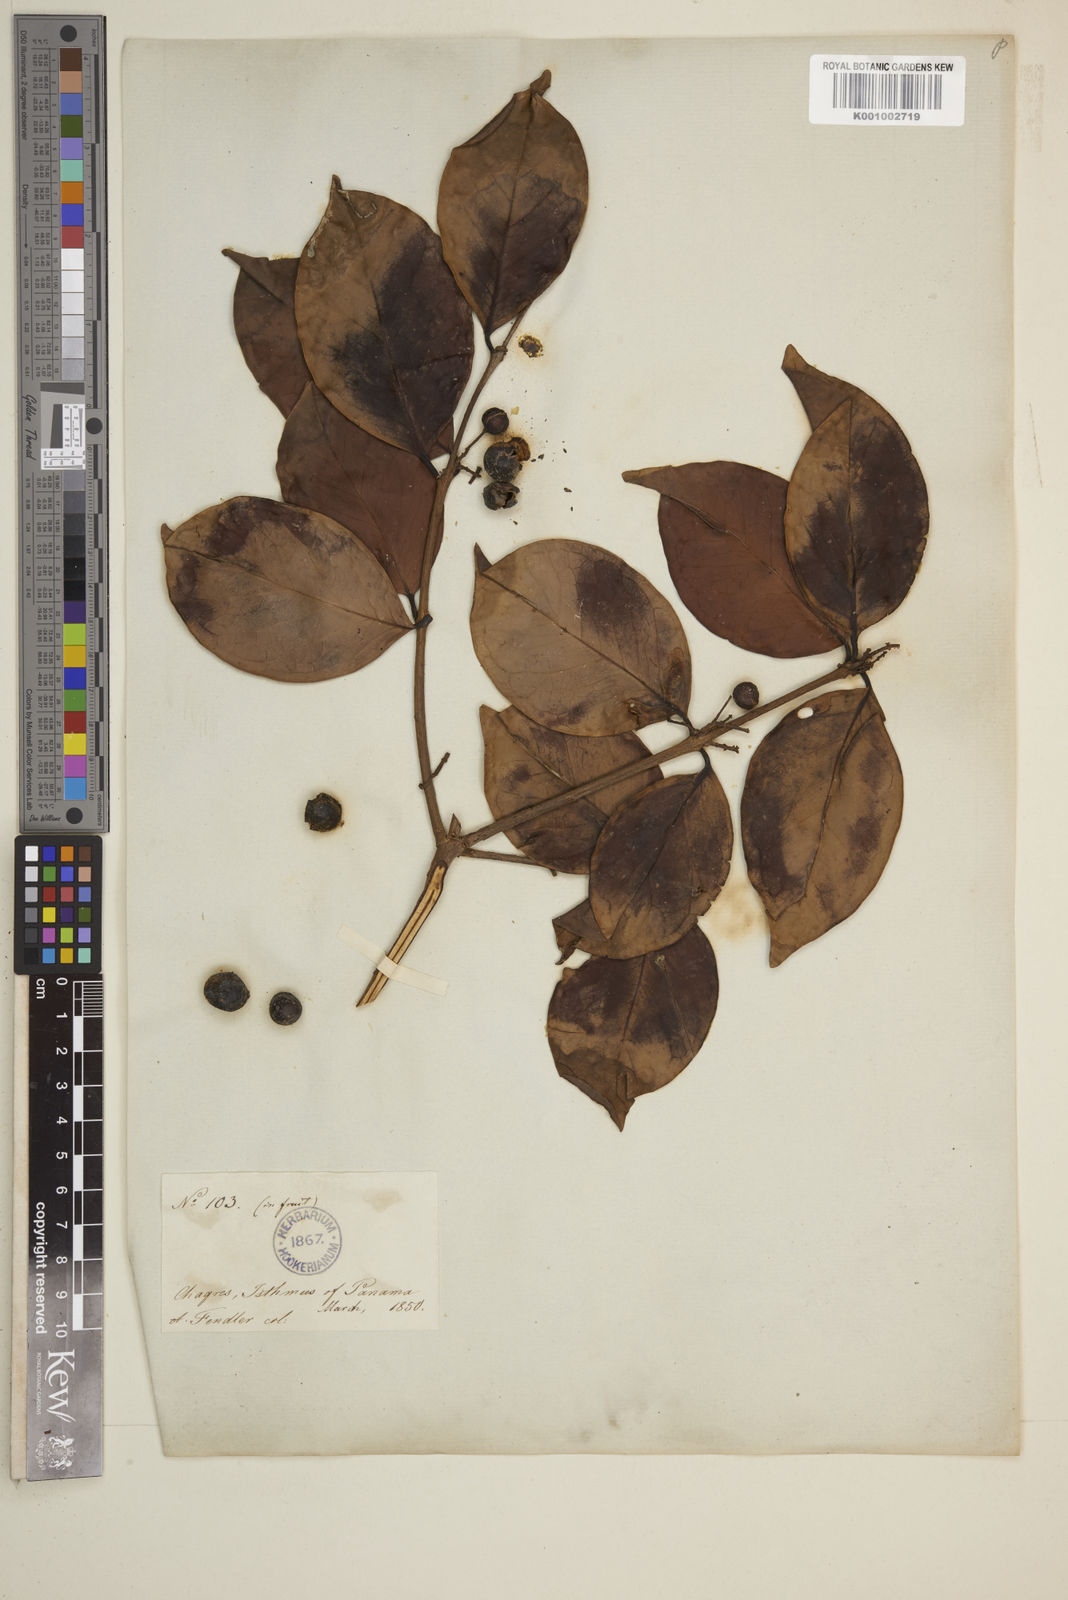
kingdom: Plantae
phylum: Tracheophyta
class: Magnoliopsida
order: Myrtales
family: Myrtaceae
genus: Eugenia
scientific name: Eugenia acapulcensis
